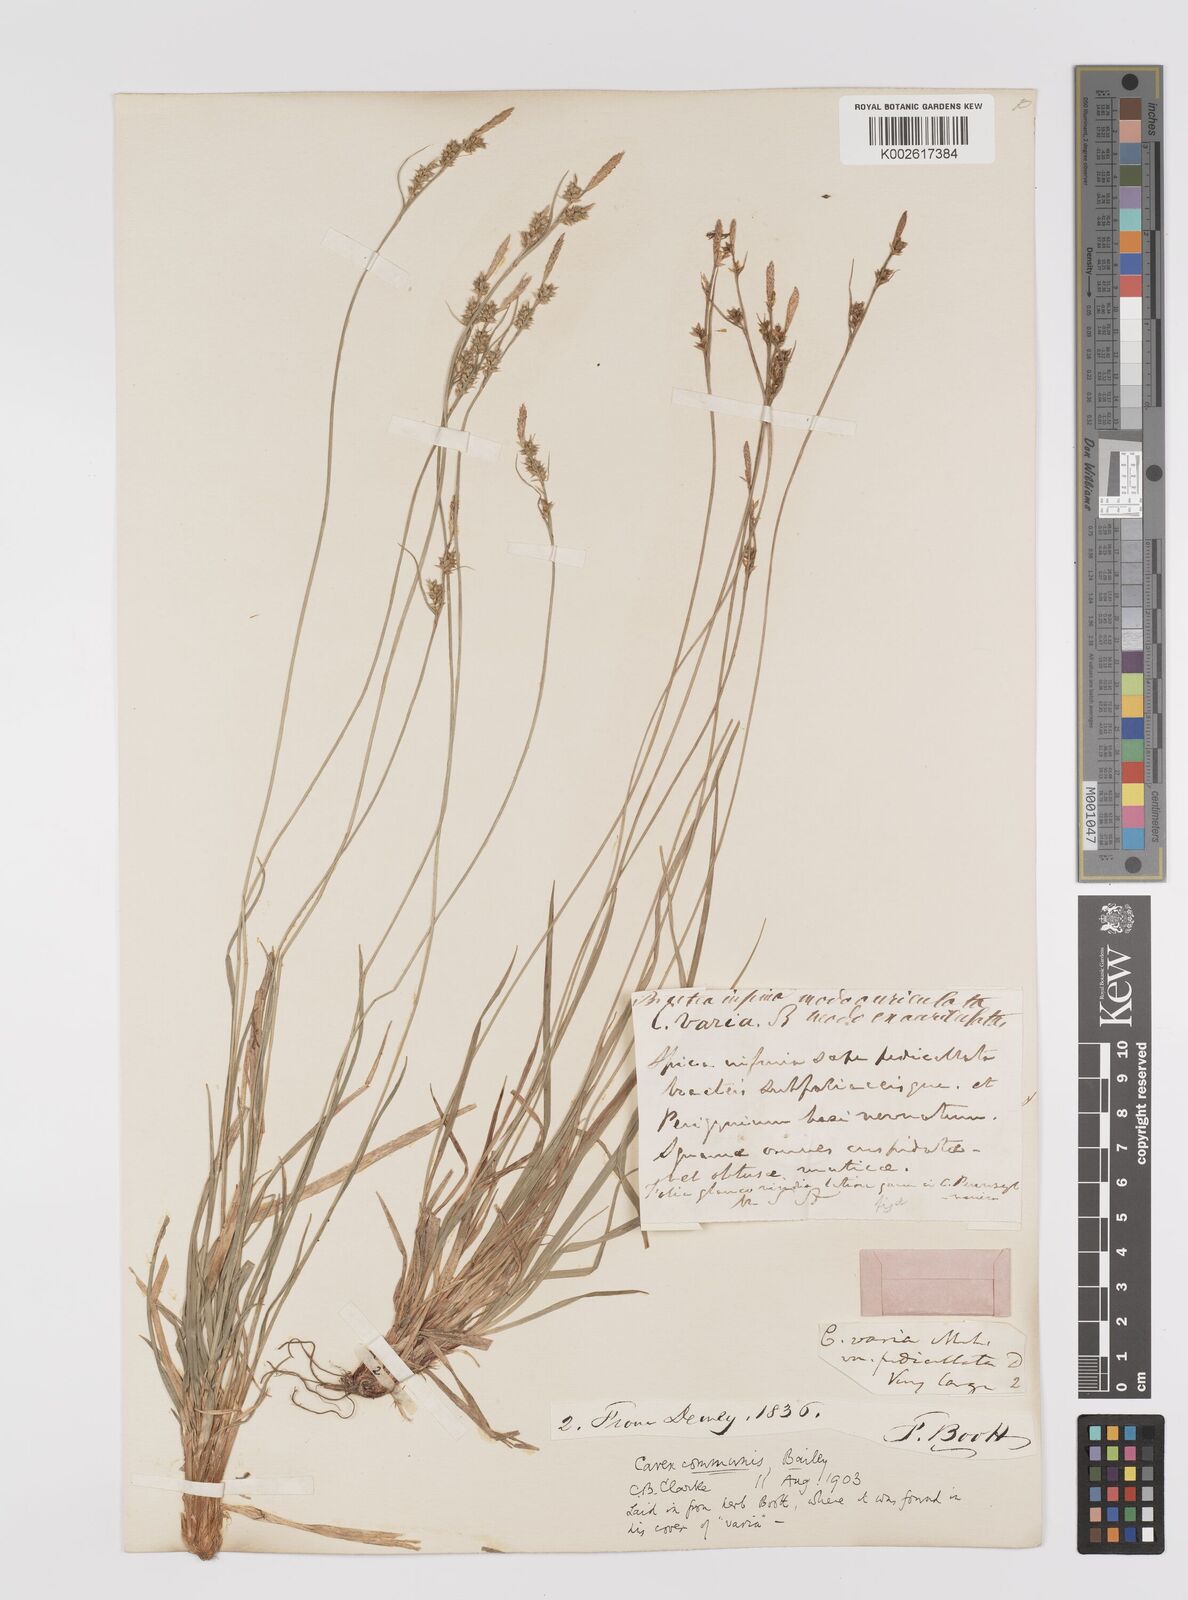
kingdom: Plantae
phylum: Tracheophyta
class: Liliopsida
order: Poales
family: Cyperaceae
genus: Carex
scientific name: Carex communis
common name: Colonial oak sedge
